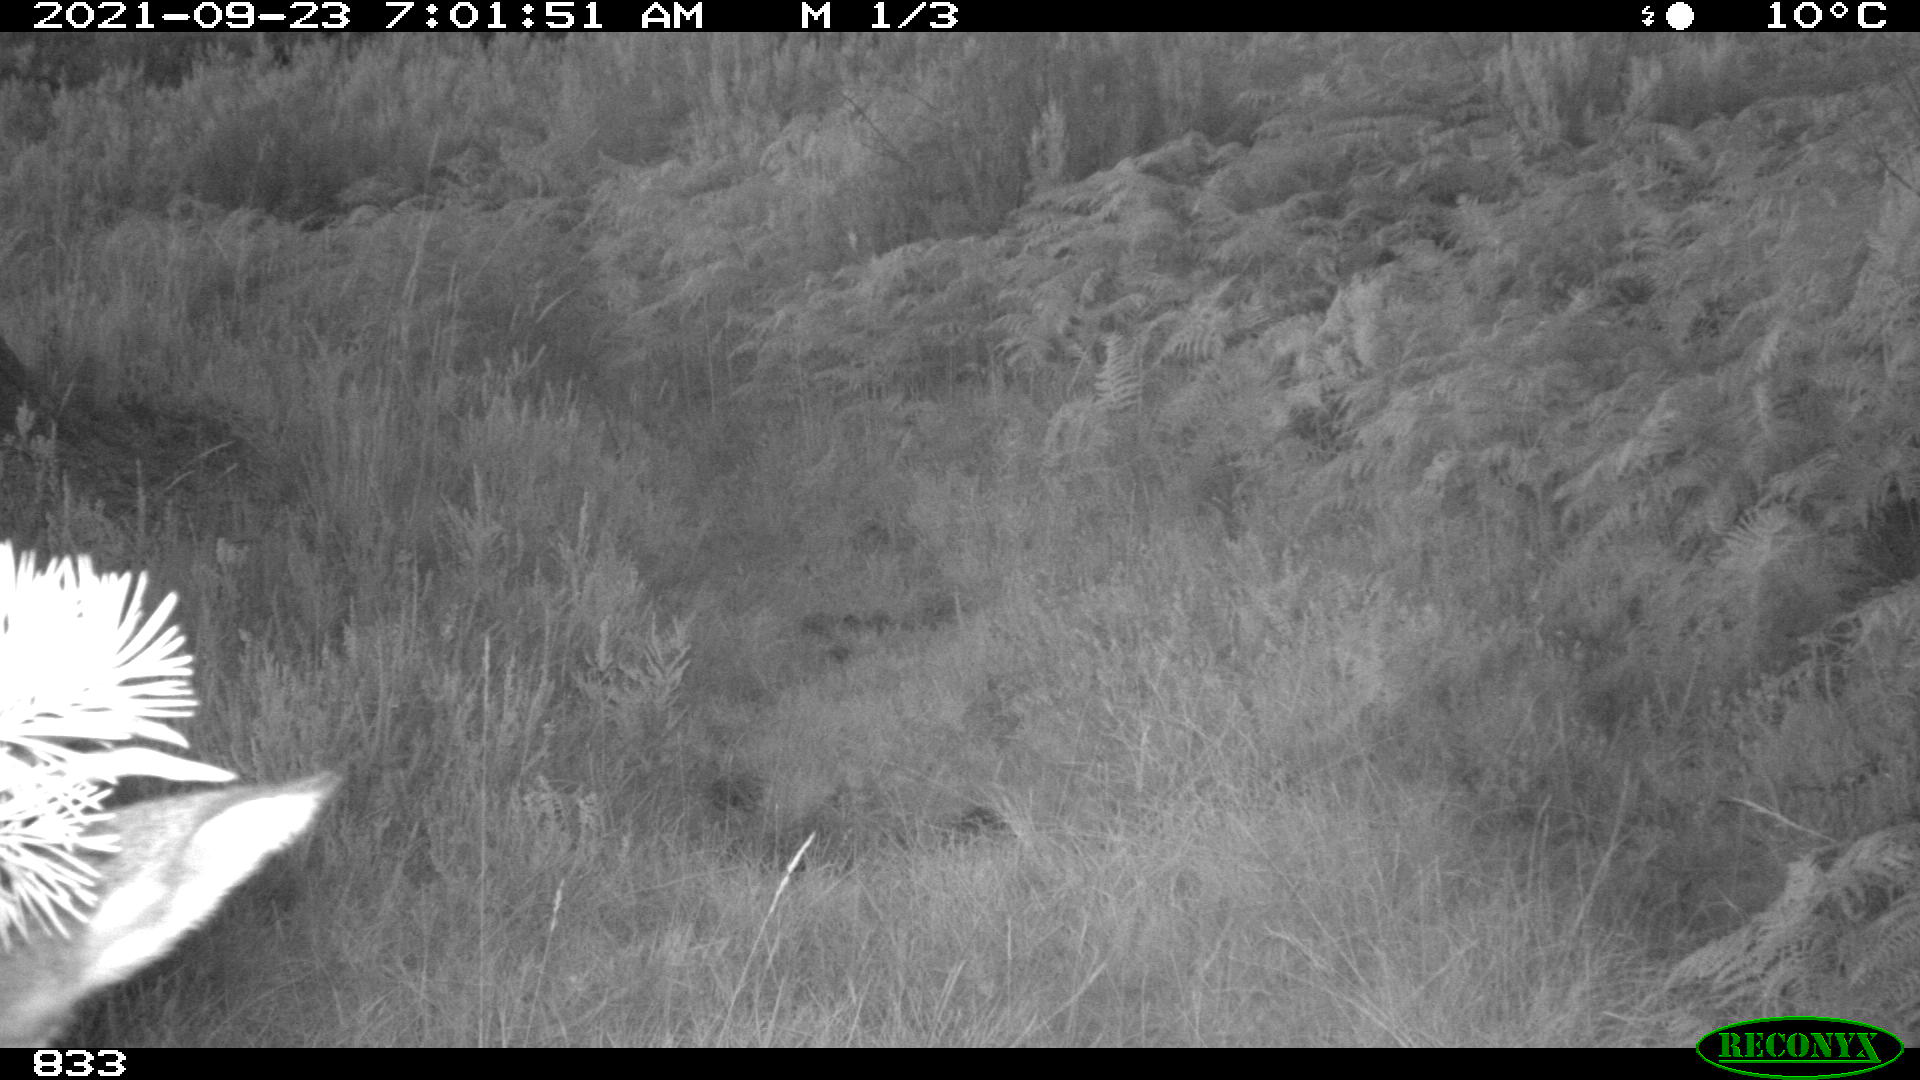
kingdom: Animalia
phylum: Chordata
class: Mammalia
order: Artiodactyla
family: Cervidae
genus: Capreolus
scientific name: Capreolus capreolus
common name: Western roe deer
